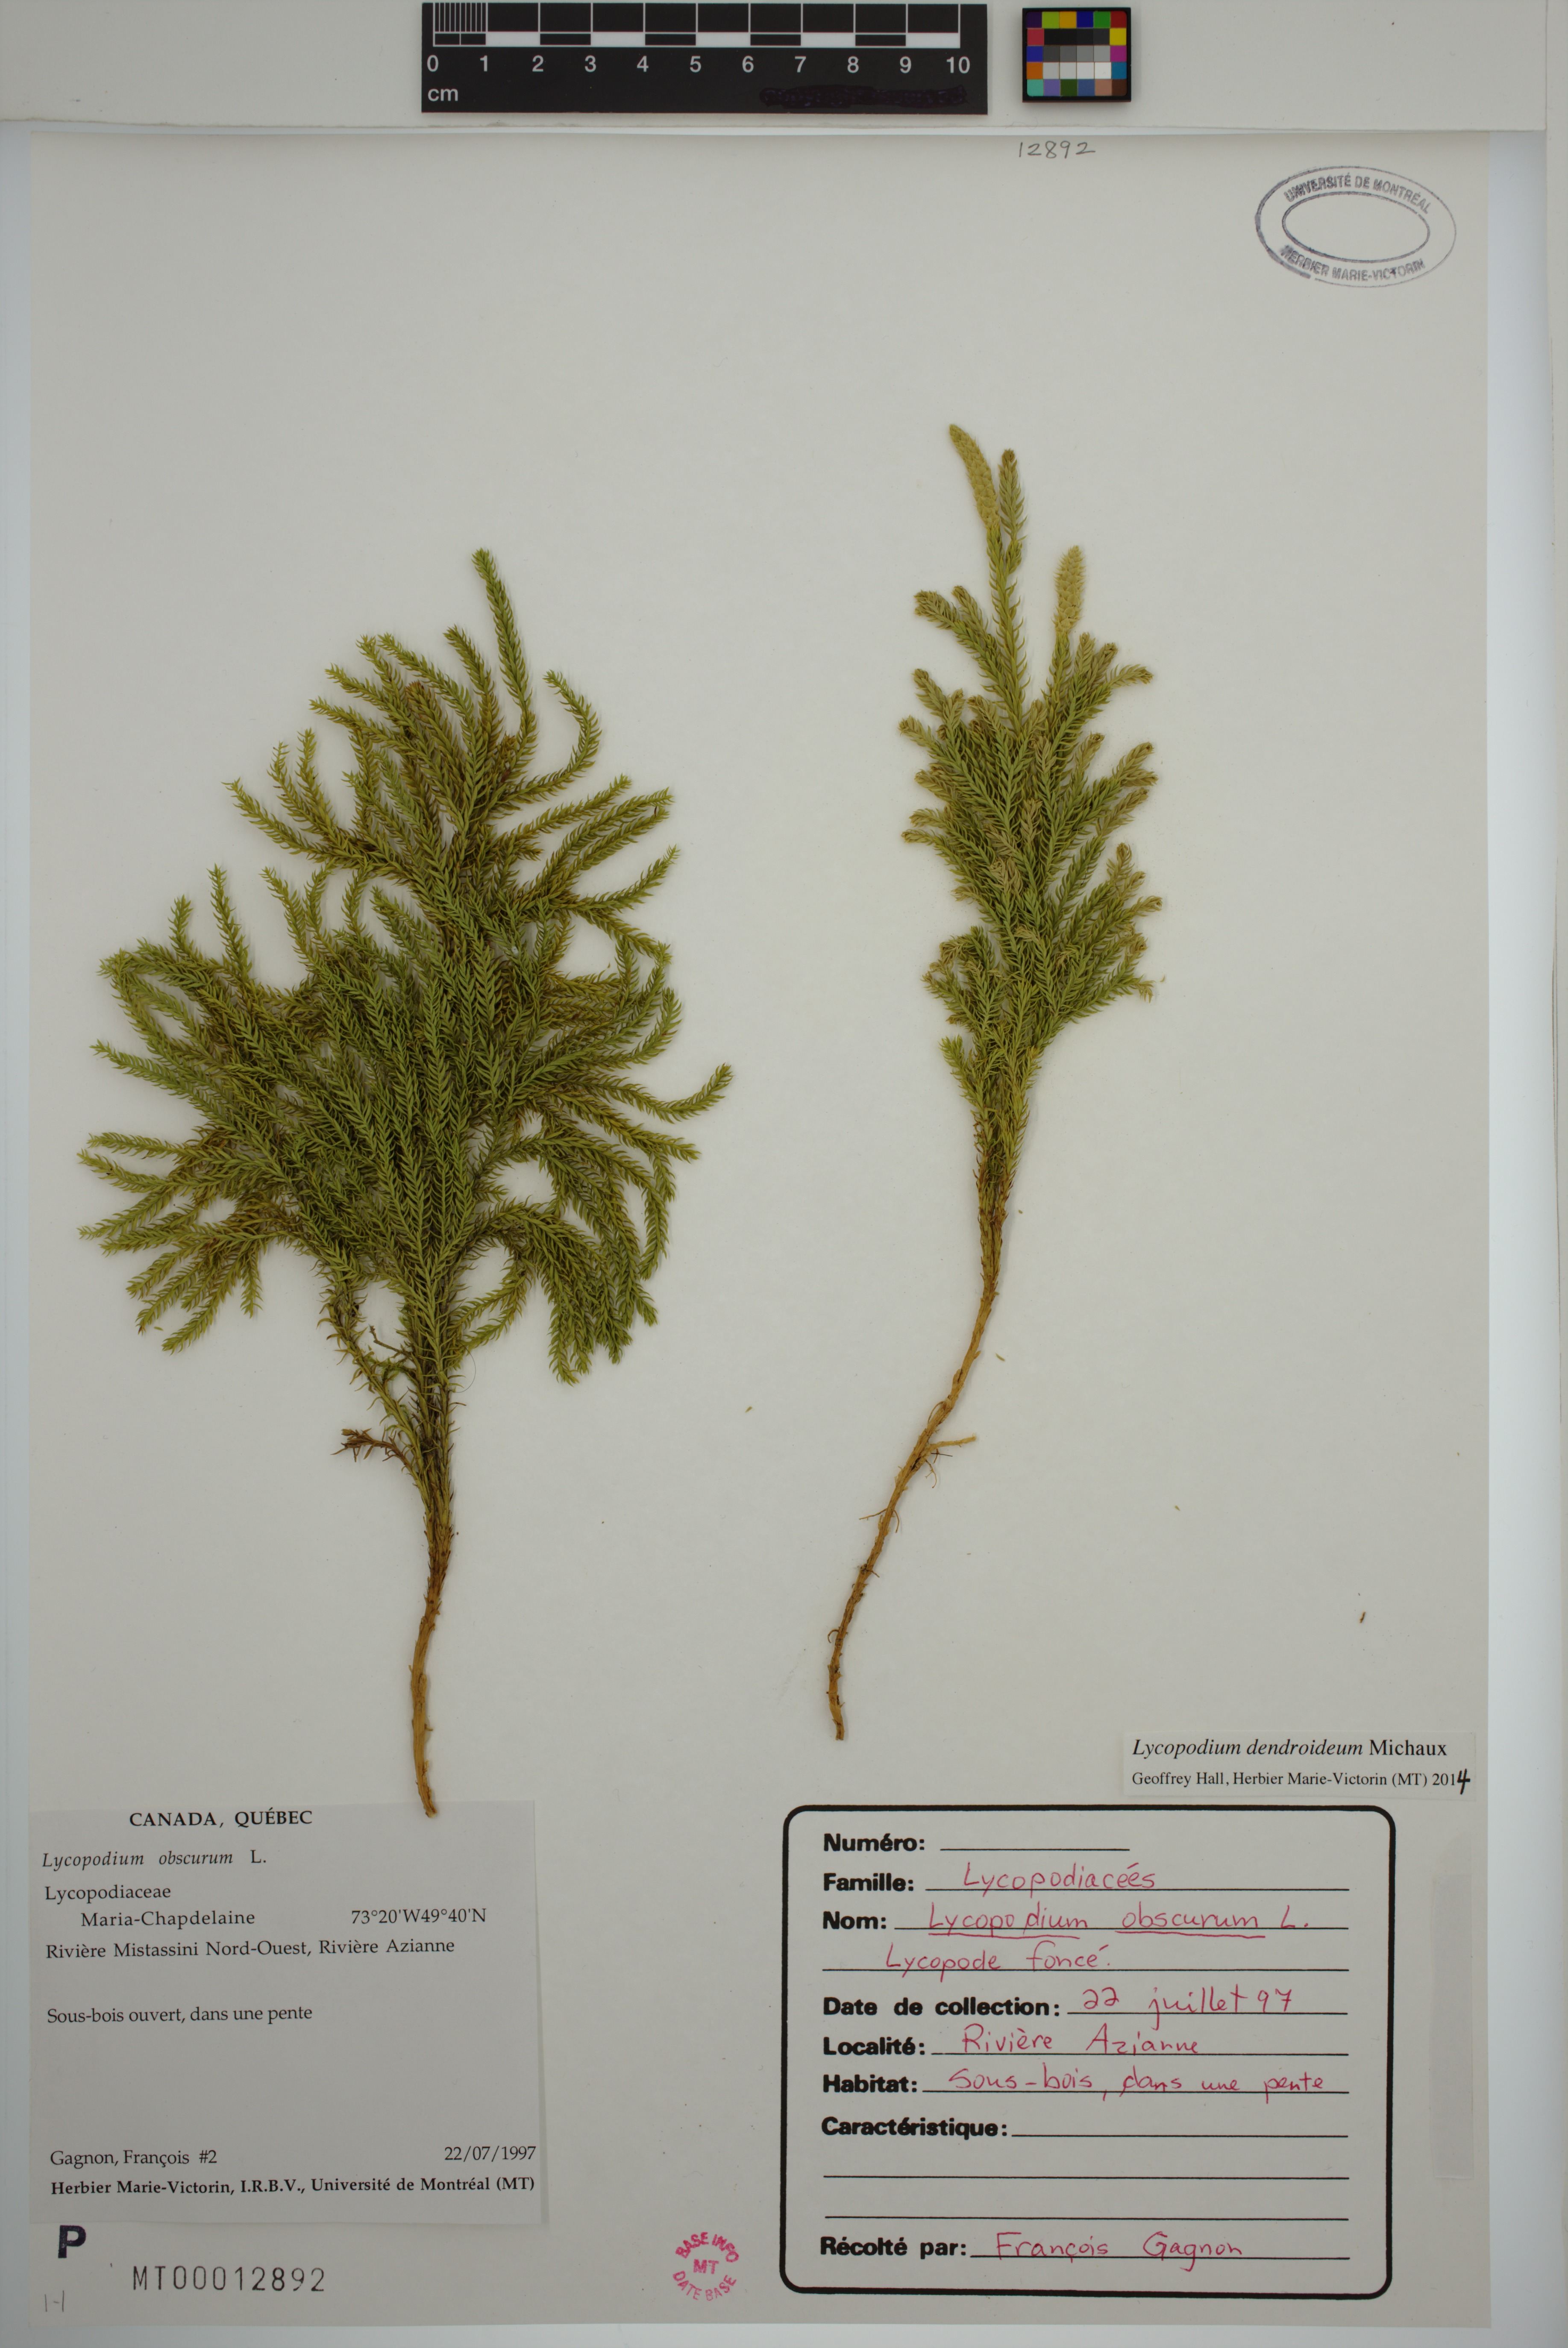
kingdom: Plantae
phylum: Tracheophyta
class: Lycopodiopsida
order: Lycopodiales
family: Lycopodiaceae
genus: Dendrolycopodium
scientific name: Dendrolycopodium dendroideum
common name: Northern tree-clubmoss
